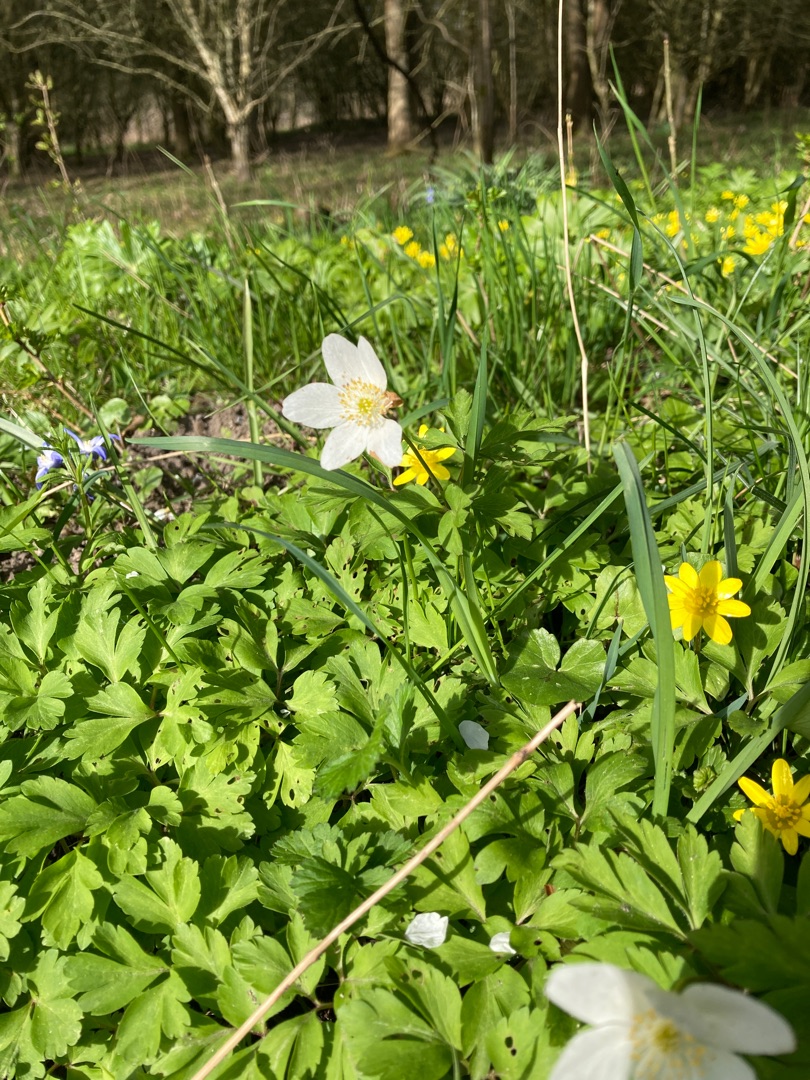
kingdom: Plantae
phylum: Tracheophyta
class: Magnoliopsida
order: Ranunculales
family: Ranunculaceae
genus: Anemone
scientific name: Anemone nemorosa
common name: Hvid anemone
